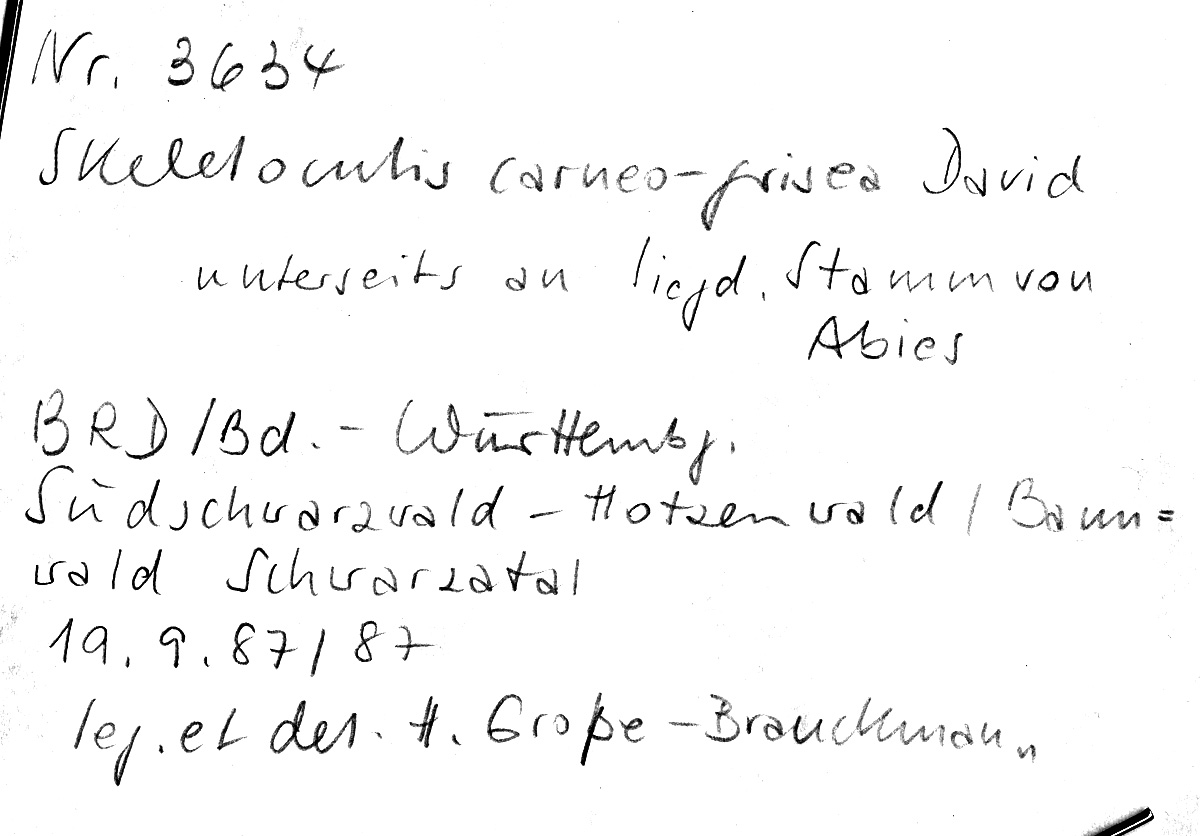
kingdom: Plantae
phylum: Tracheophyta
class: Pinopsida
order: Pinales
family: Pinaceae
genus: Abies
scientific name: Abies
